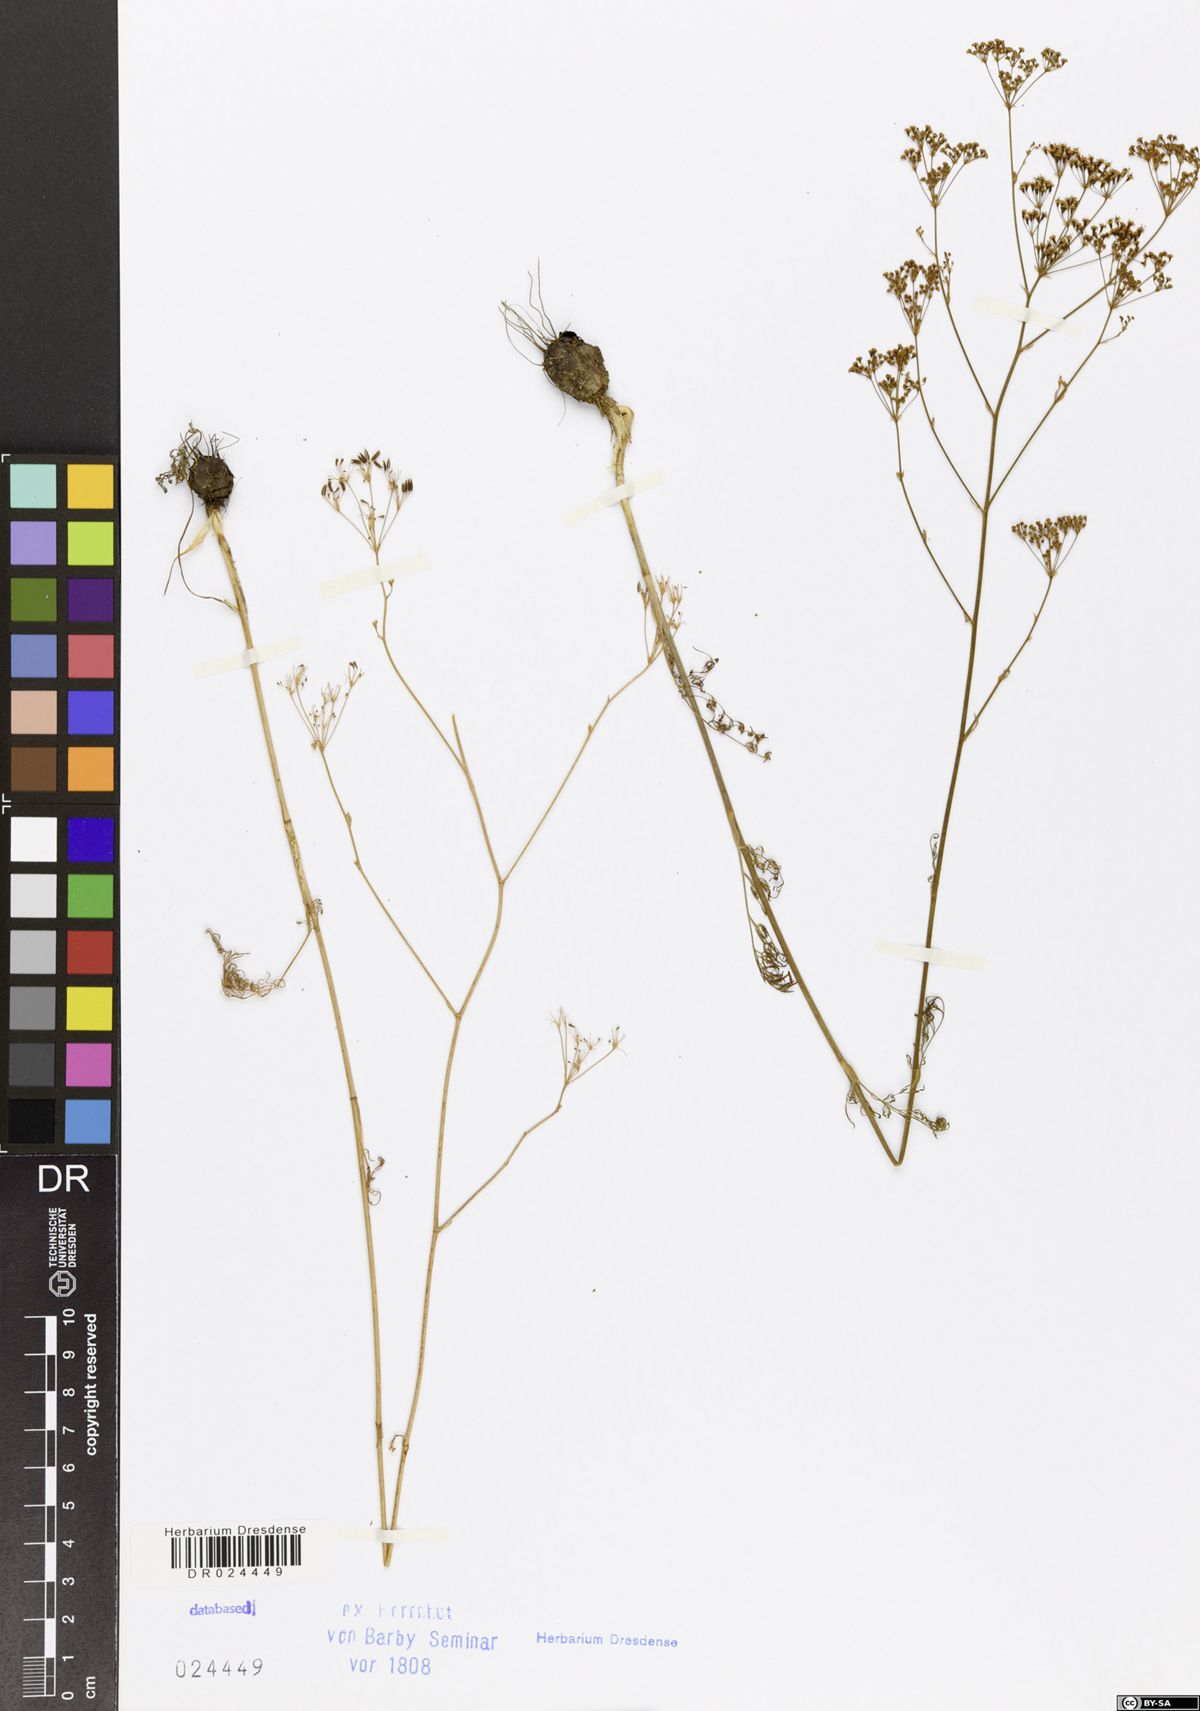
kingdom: Plantae
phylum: Tracheophyta
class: Magnoliopsida
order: Apiales
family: Apiaceae
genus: Elaeosticta
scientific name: Elaeosticta lutea
